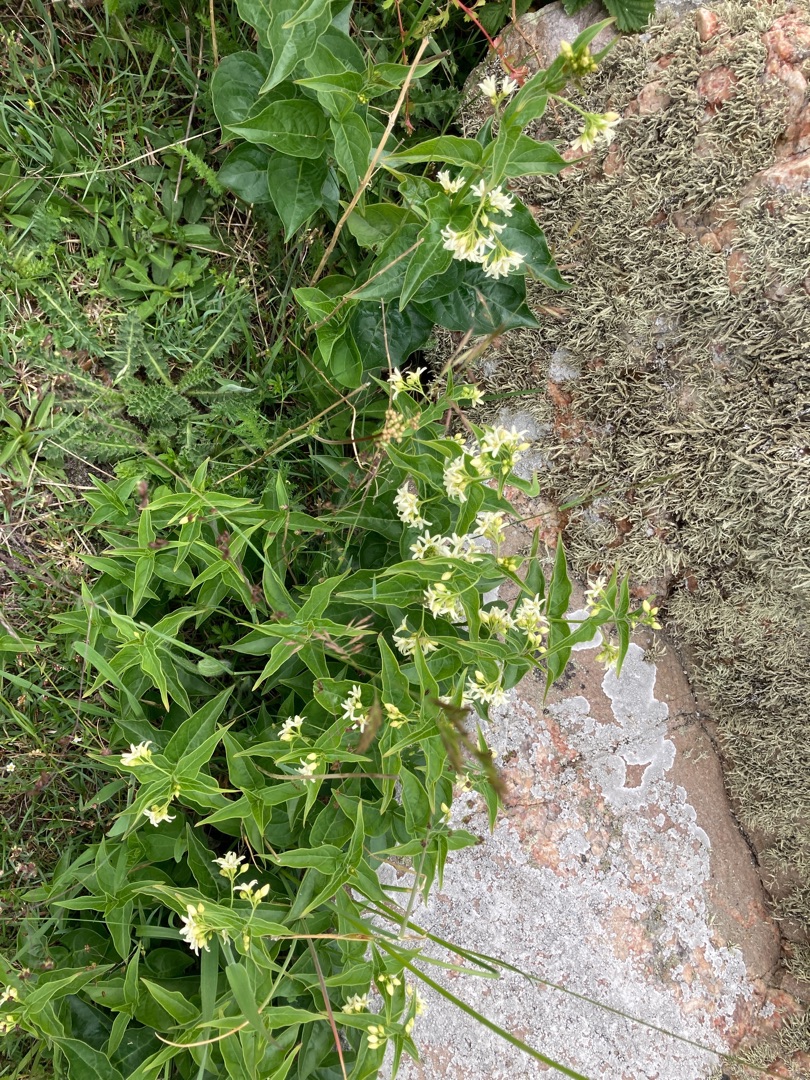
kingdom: Plantae
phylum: Tracheophyta
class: Magnoliopsida
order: Gentianales
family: Apocynaceae
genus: Vincetoxicum
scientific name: Vincetoxicum hirundinaria
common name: Svalerod
